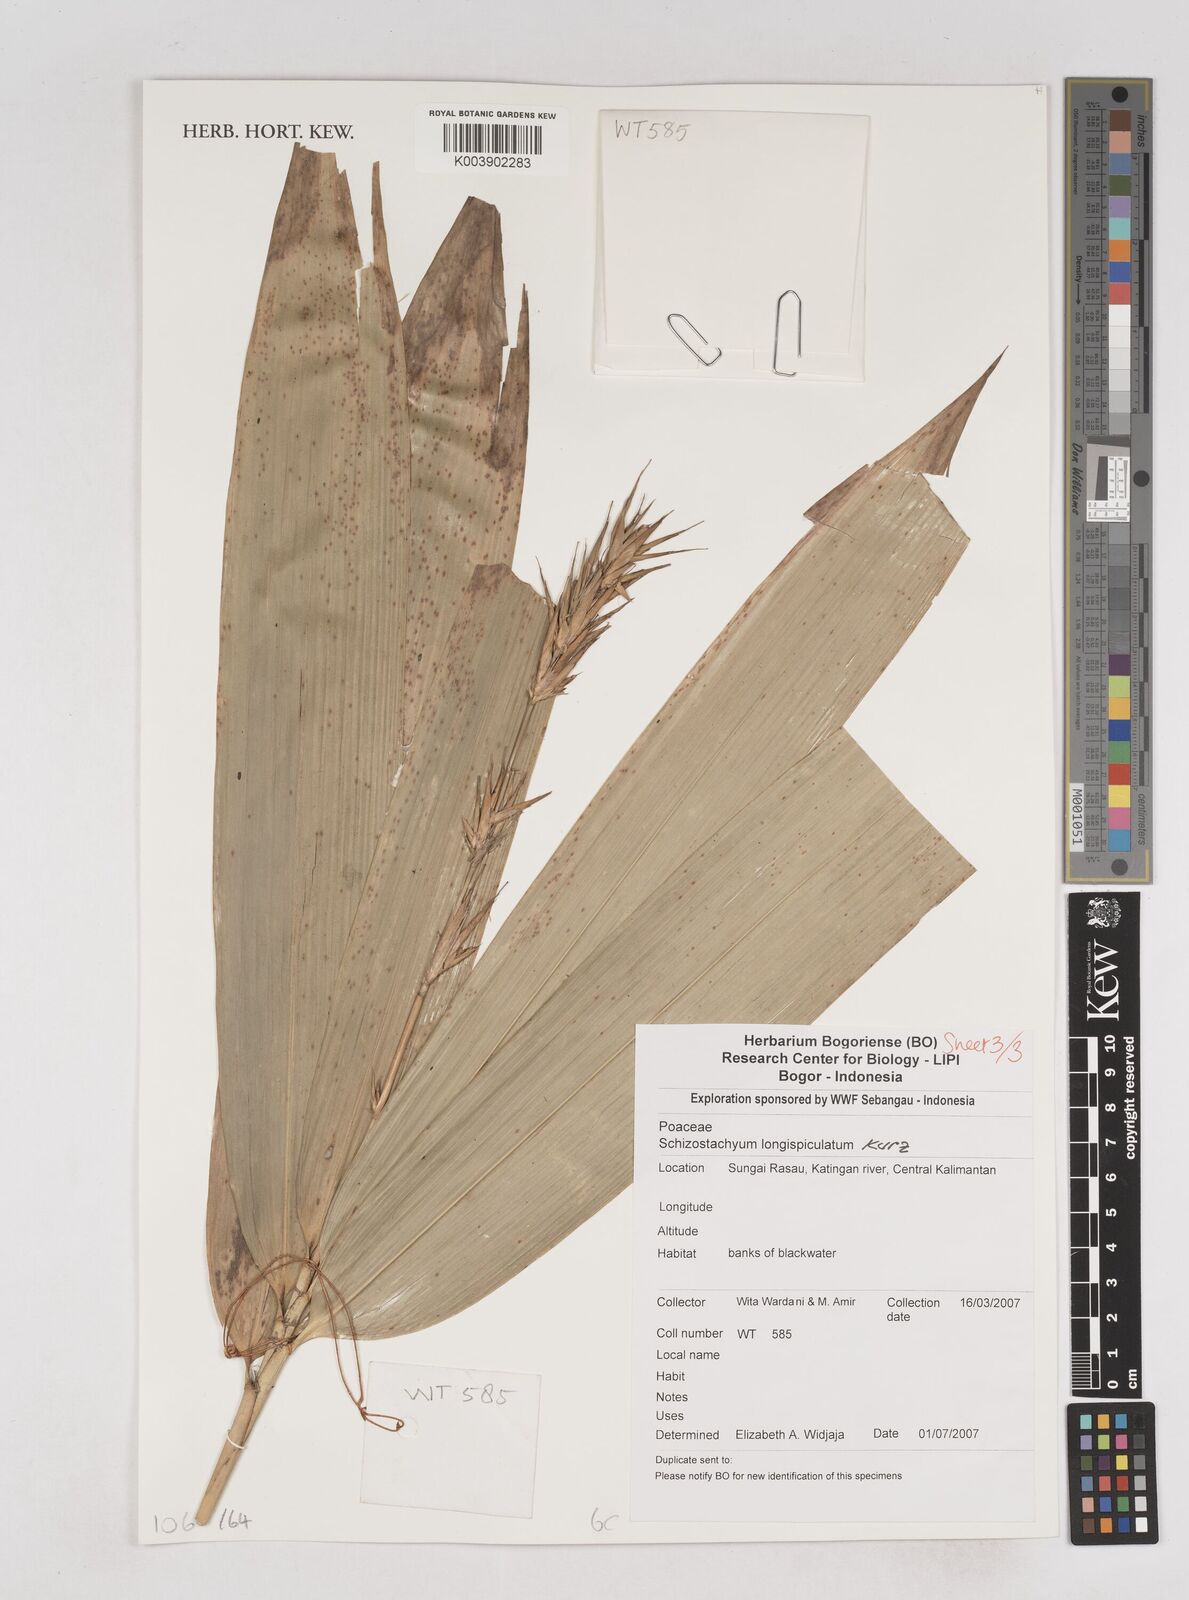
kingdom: Plantae
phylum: Tracheophyta
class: Liliopsida
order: Poales
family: Poaceae
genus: Schizostachyum
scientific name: Schizostachyum blumei
